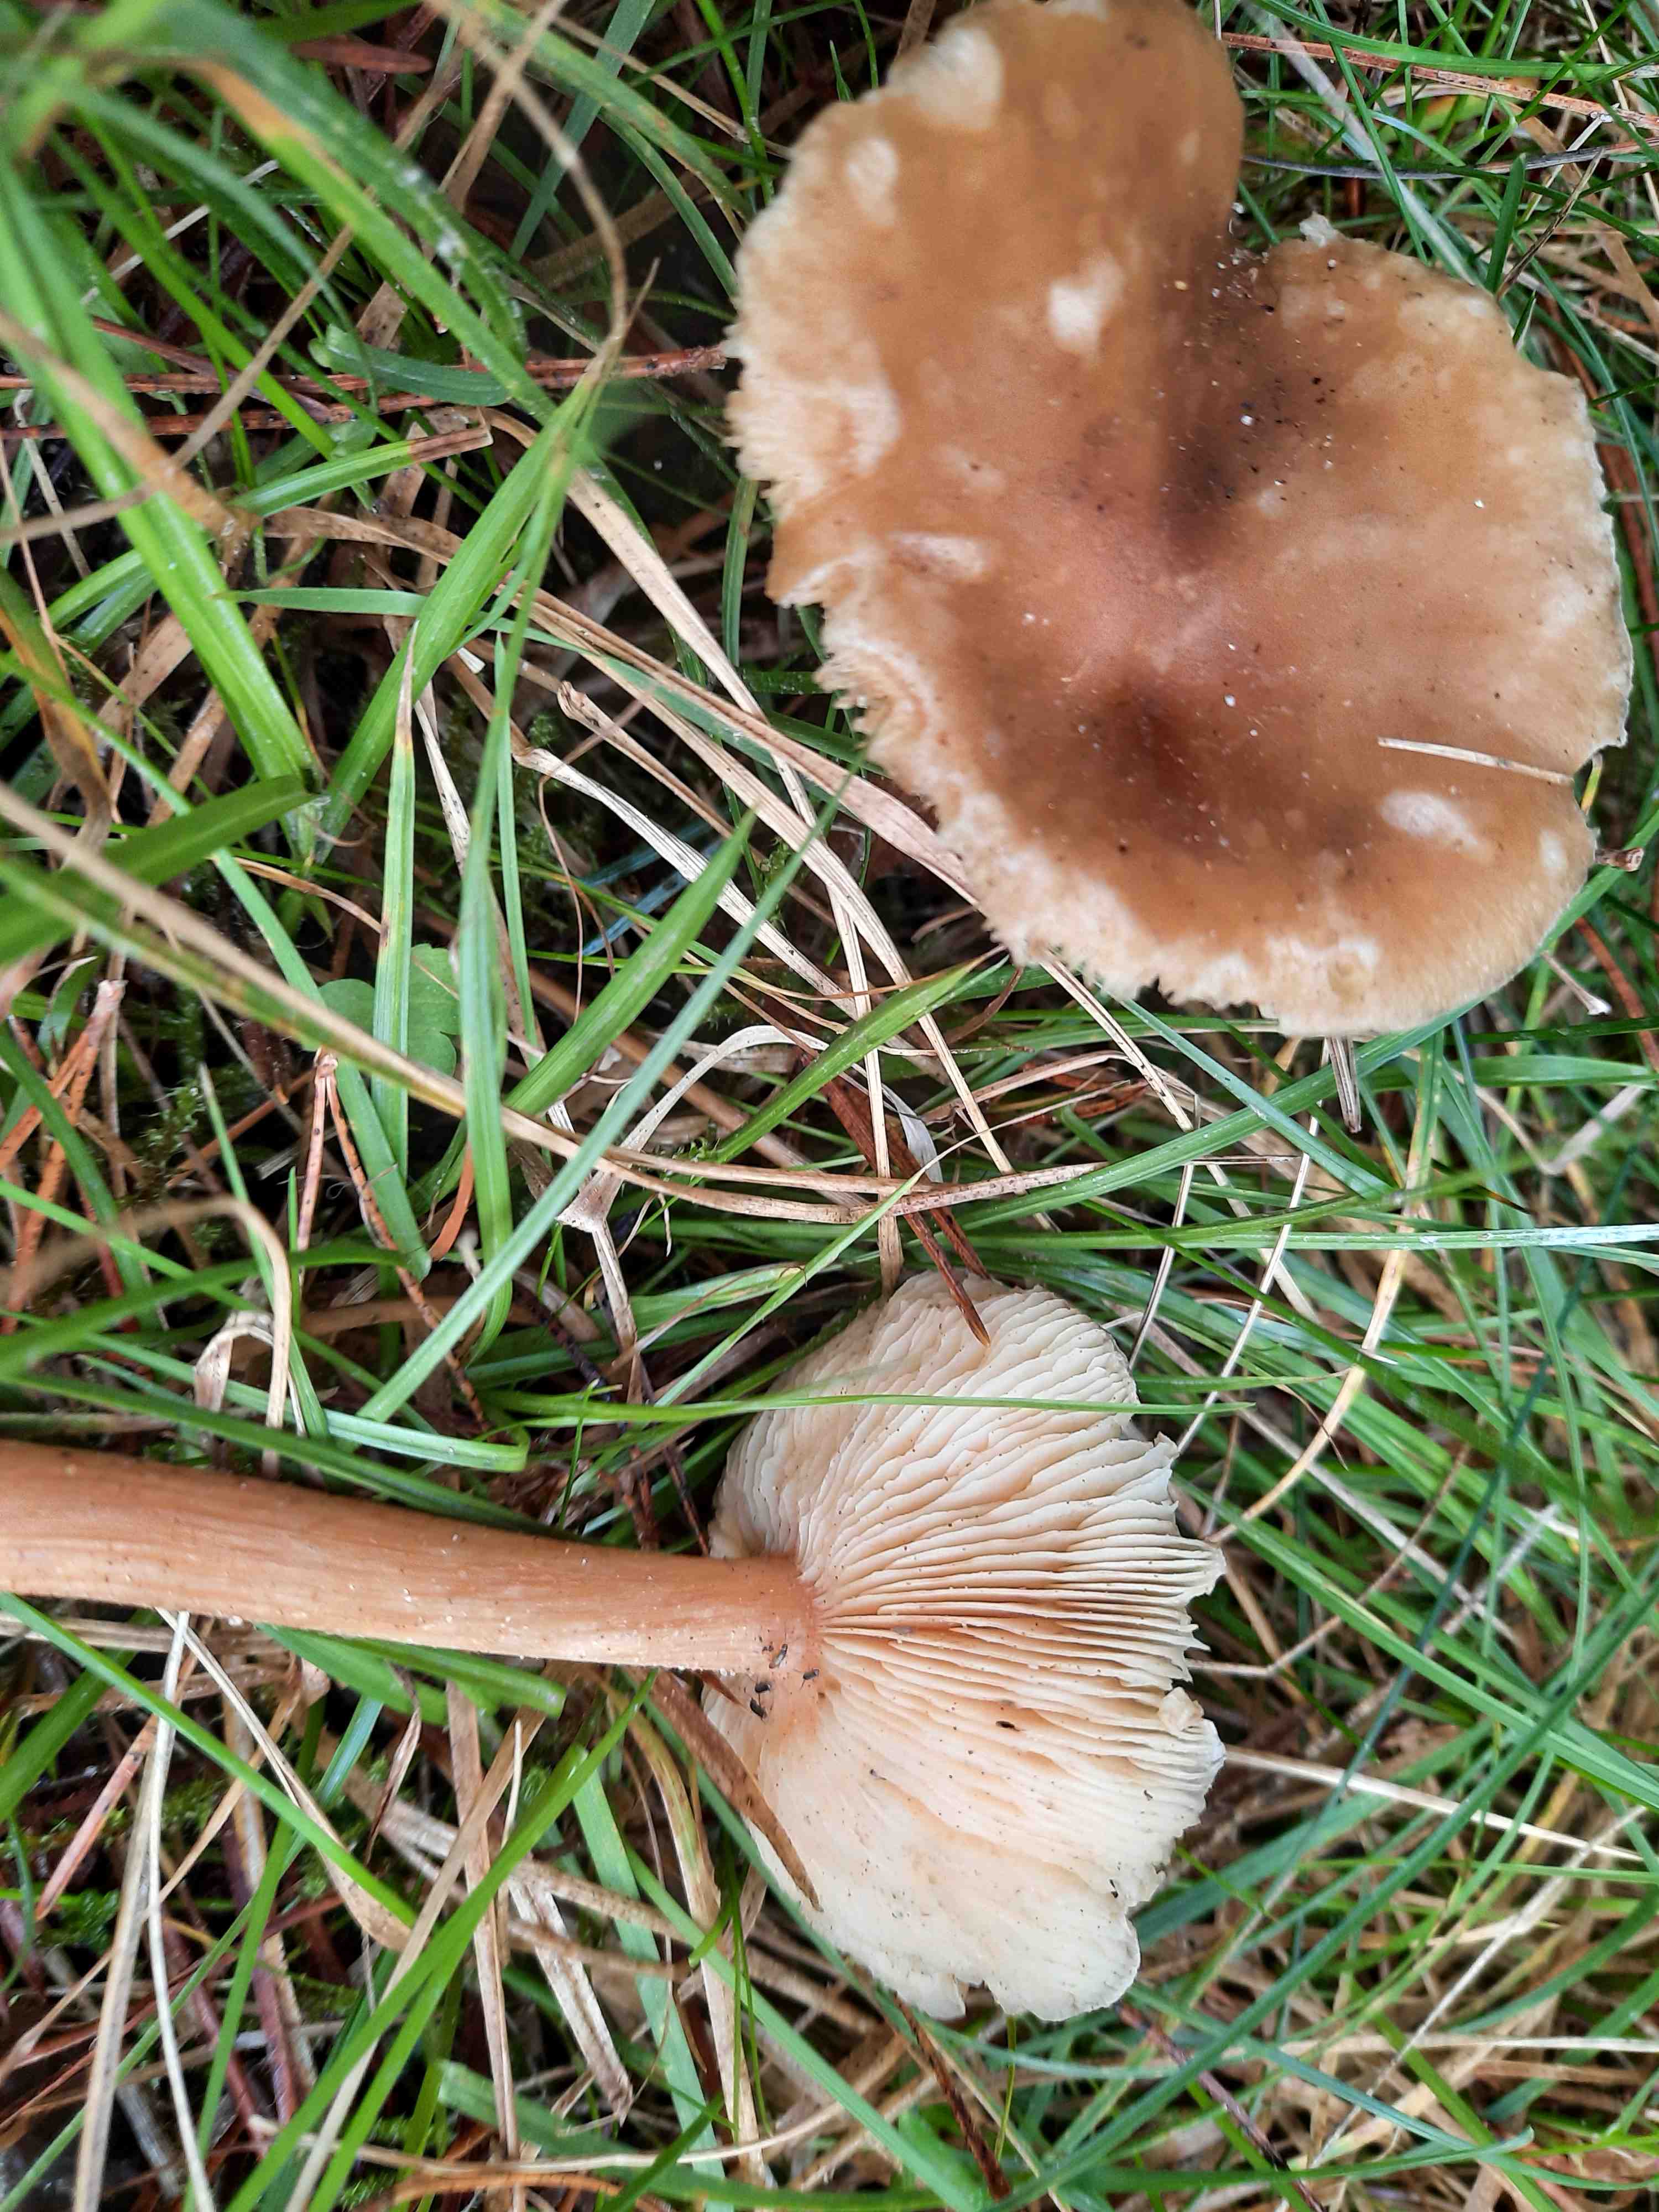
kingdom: Fungi
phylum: Basidiomycota
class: Agaricomycetes
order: Agaricales
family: Tricholomataceae
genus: Melanoleuca
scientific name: Melanoleuca cognata
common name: gyldengrå munkehat
